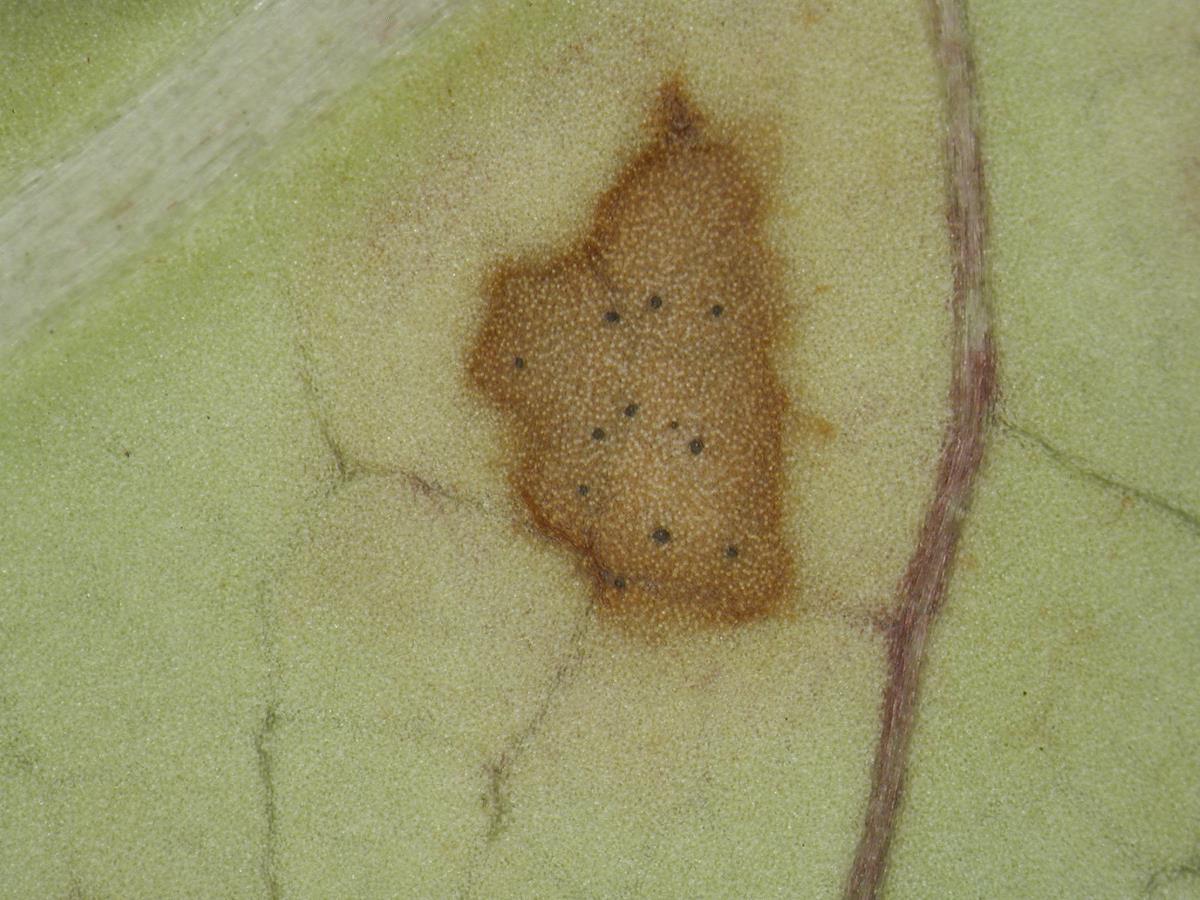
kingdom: Fungi
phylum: Ascomycota
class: Dothideomycetes
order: Mycosphaerellales
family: Mycosphaerellaceae
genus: Pseudophaeophleospora
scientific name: Pseudophaeophleospora atkinsonii
